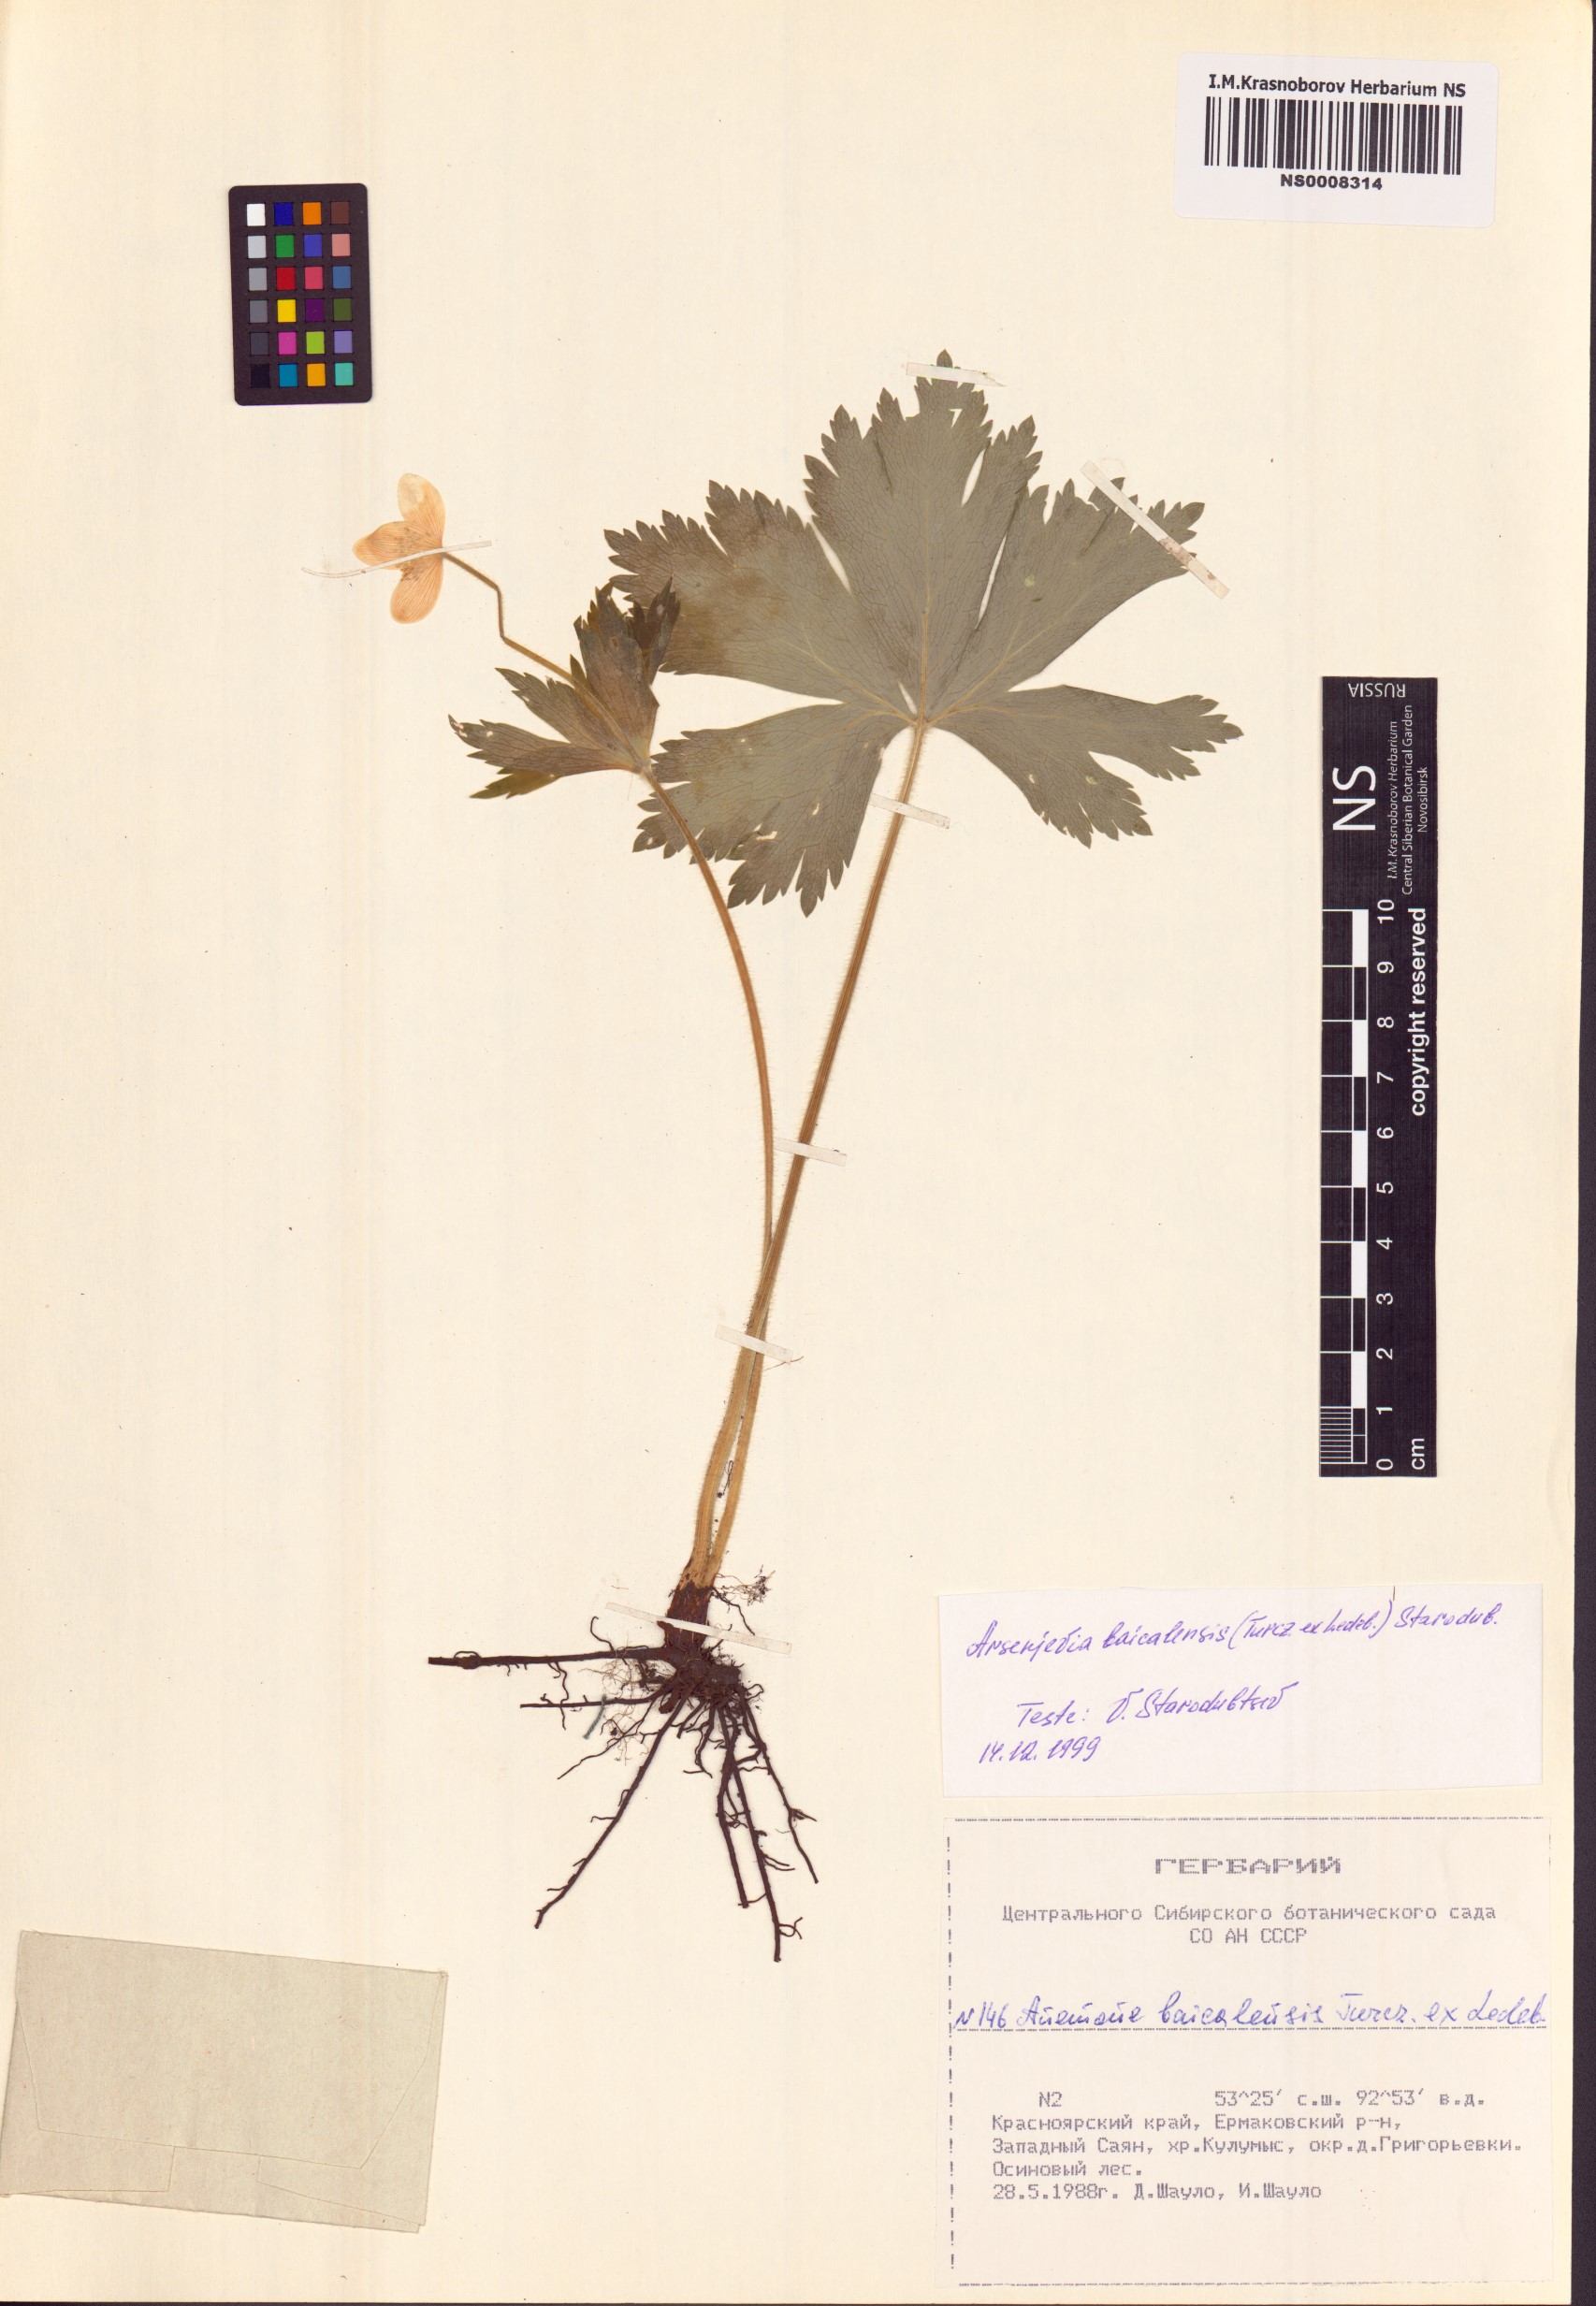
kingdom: Plantae
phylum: Tracheophyta
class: Magnoliopsida
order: Ranunculales
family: Ranunculaceae
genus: Anemonastrum
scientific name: Anemonastrum baicalense
